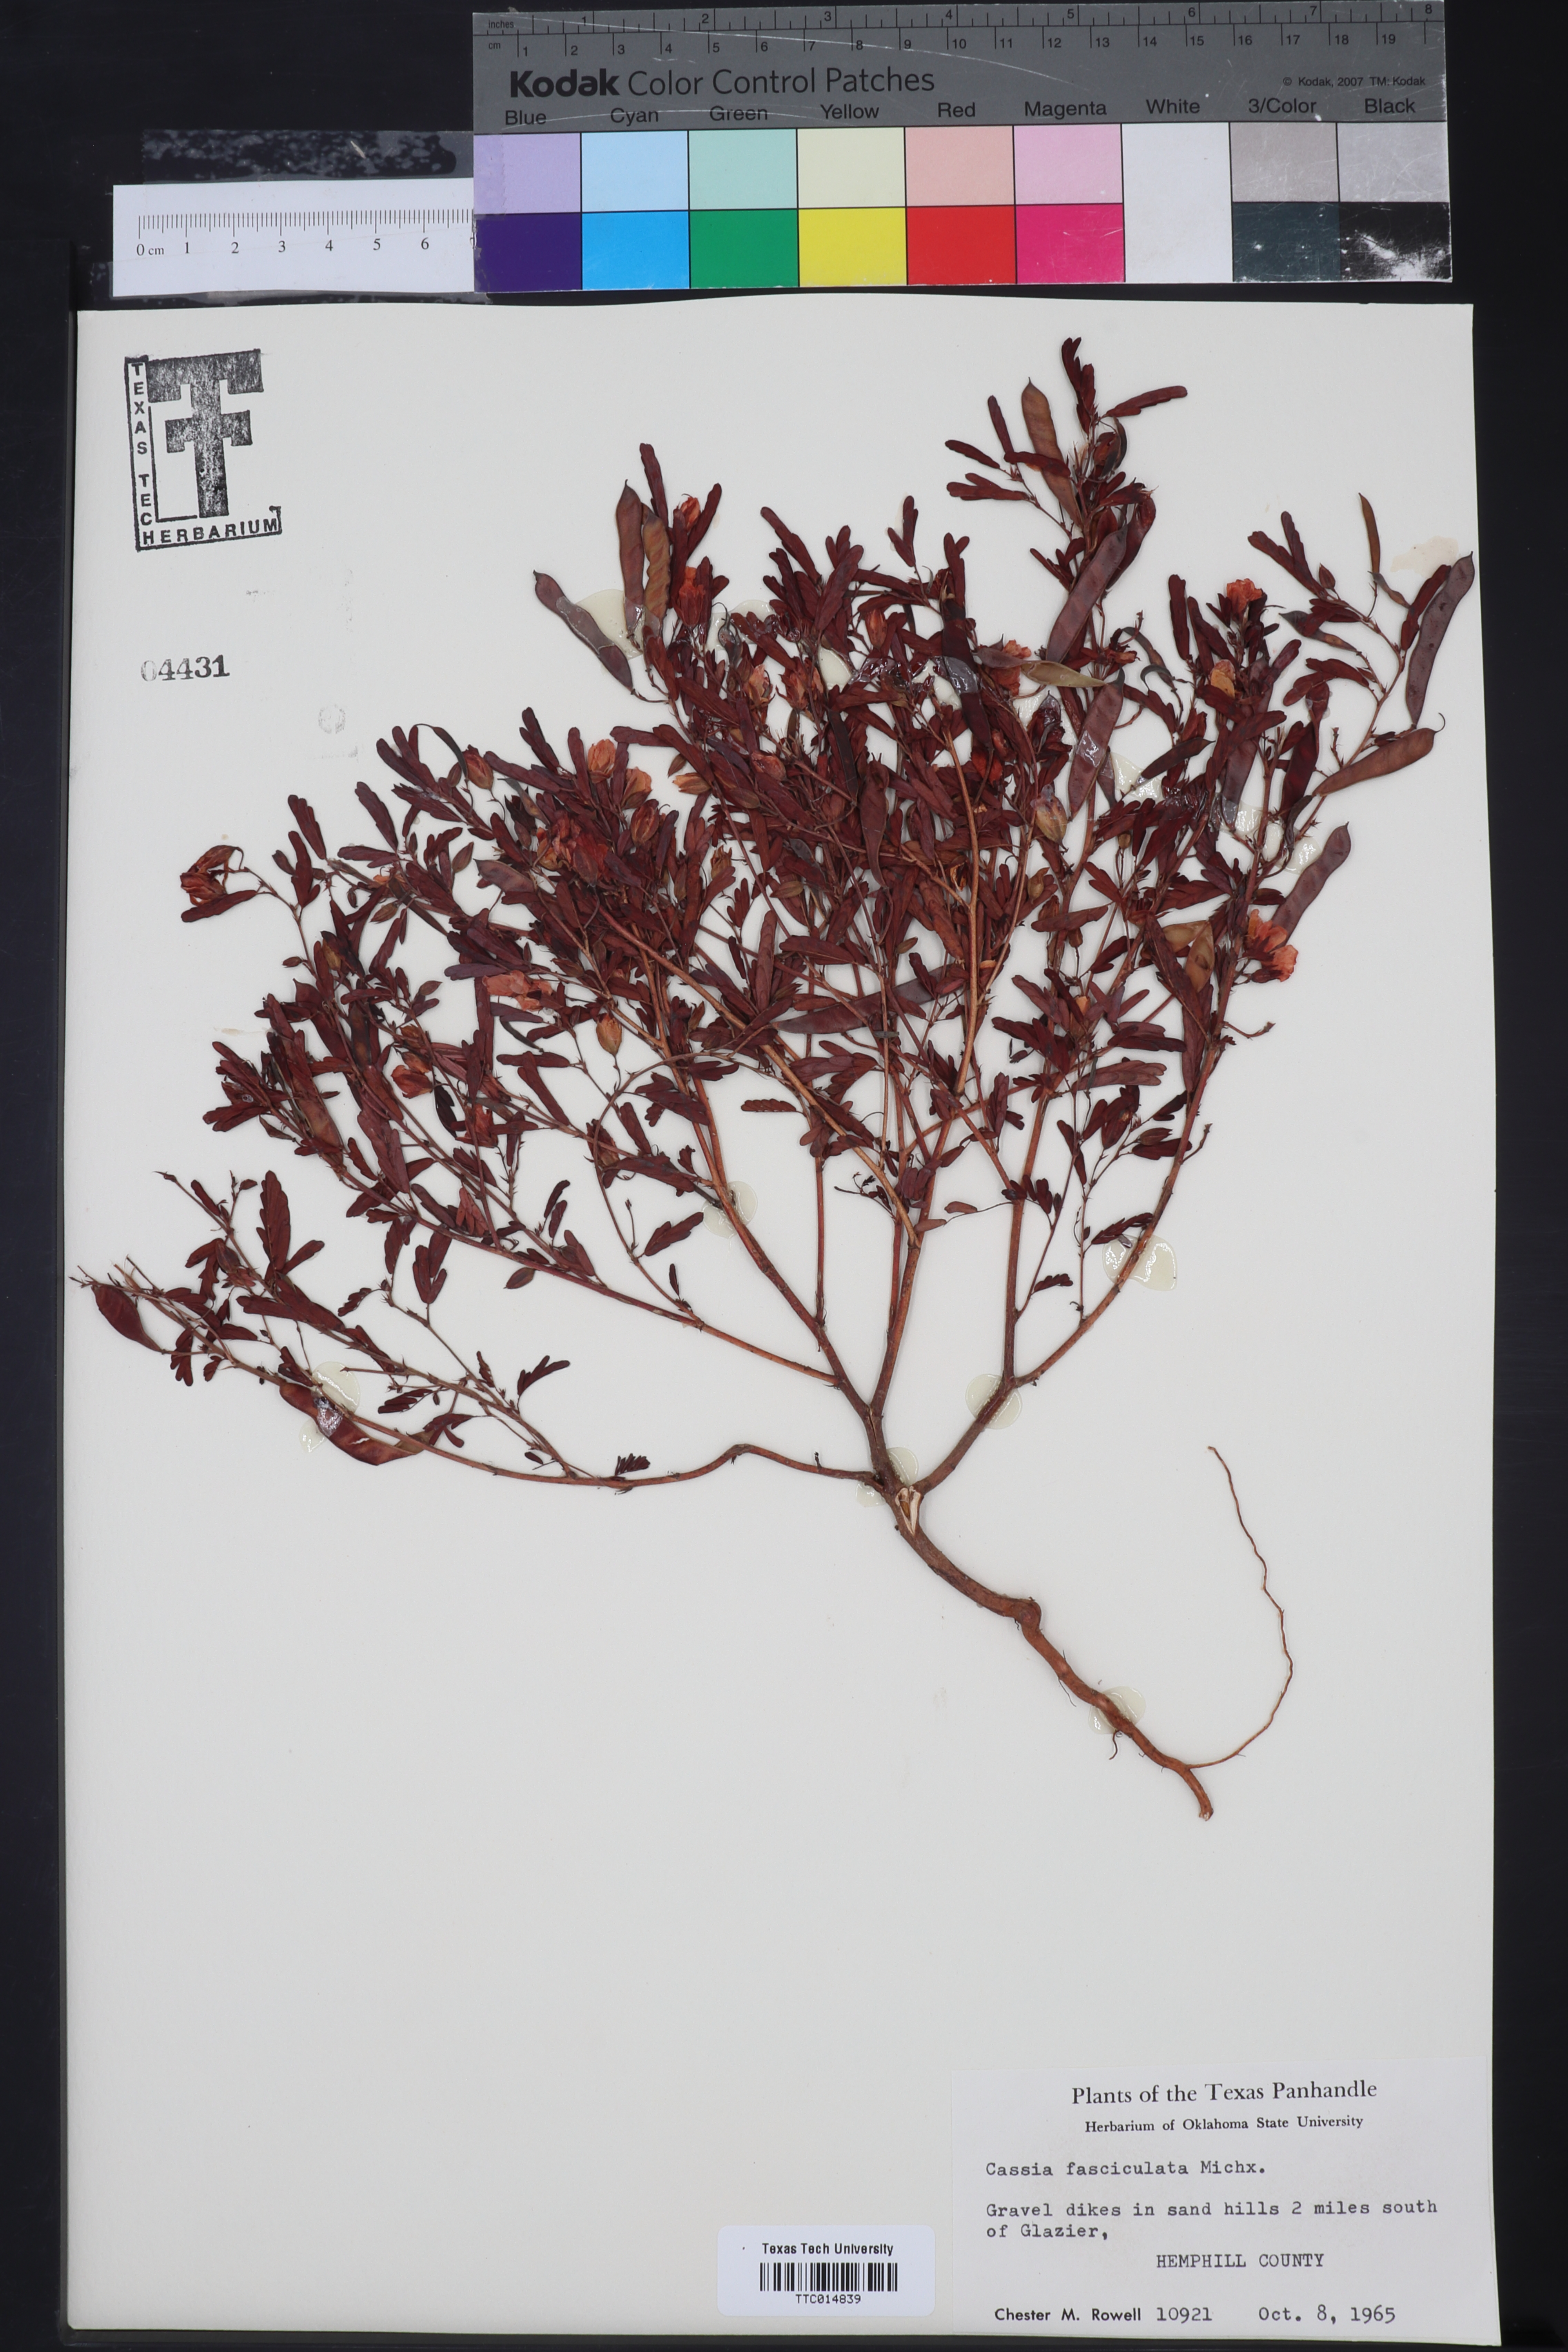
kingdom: Plantae
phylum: Tracheophyta
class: Magnoliopsida
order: Fabales
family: Fabaceae
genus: Chamaecrista
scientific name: Chamaecrista fasciculata
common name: Golden cassia
